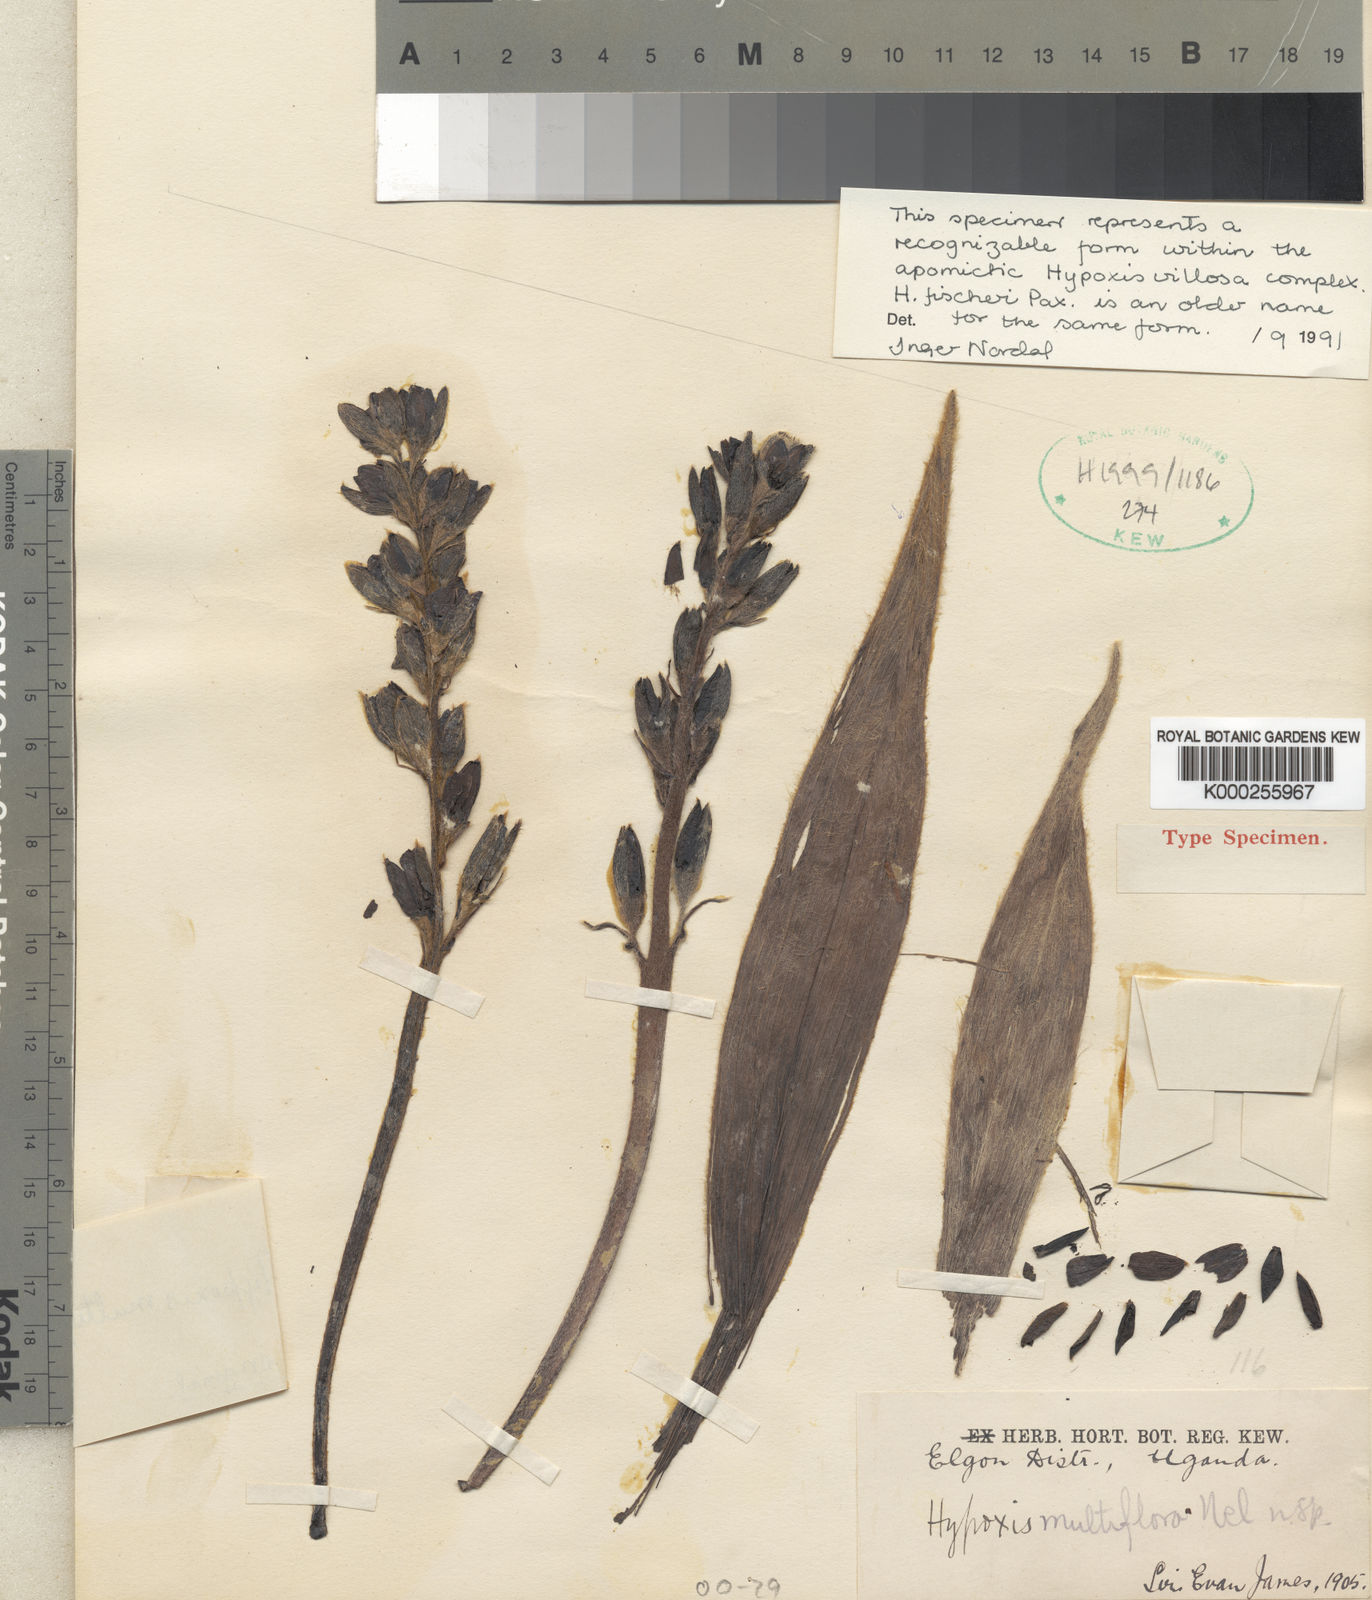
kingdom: Plantae
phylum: Tracheophyta
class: Liliopsida
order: Asparagales
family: Hypoxidaceae
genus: Hypoxis
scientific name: Hypoxis fischeri
